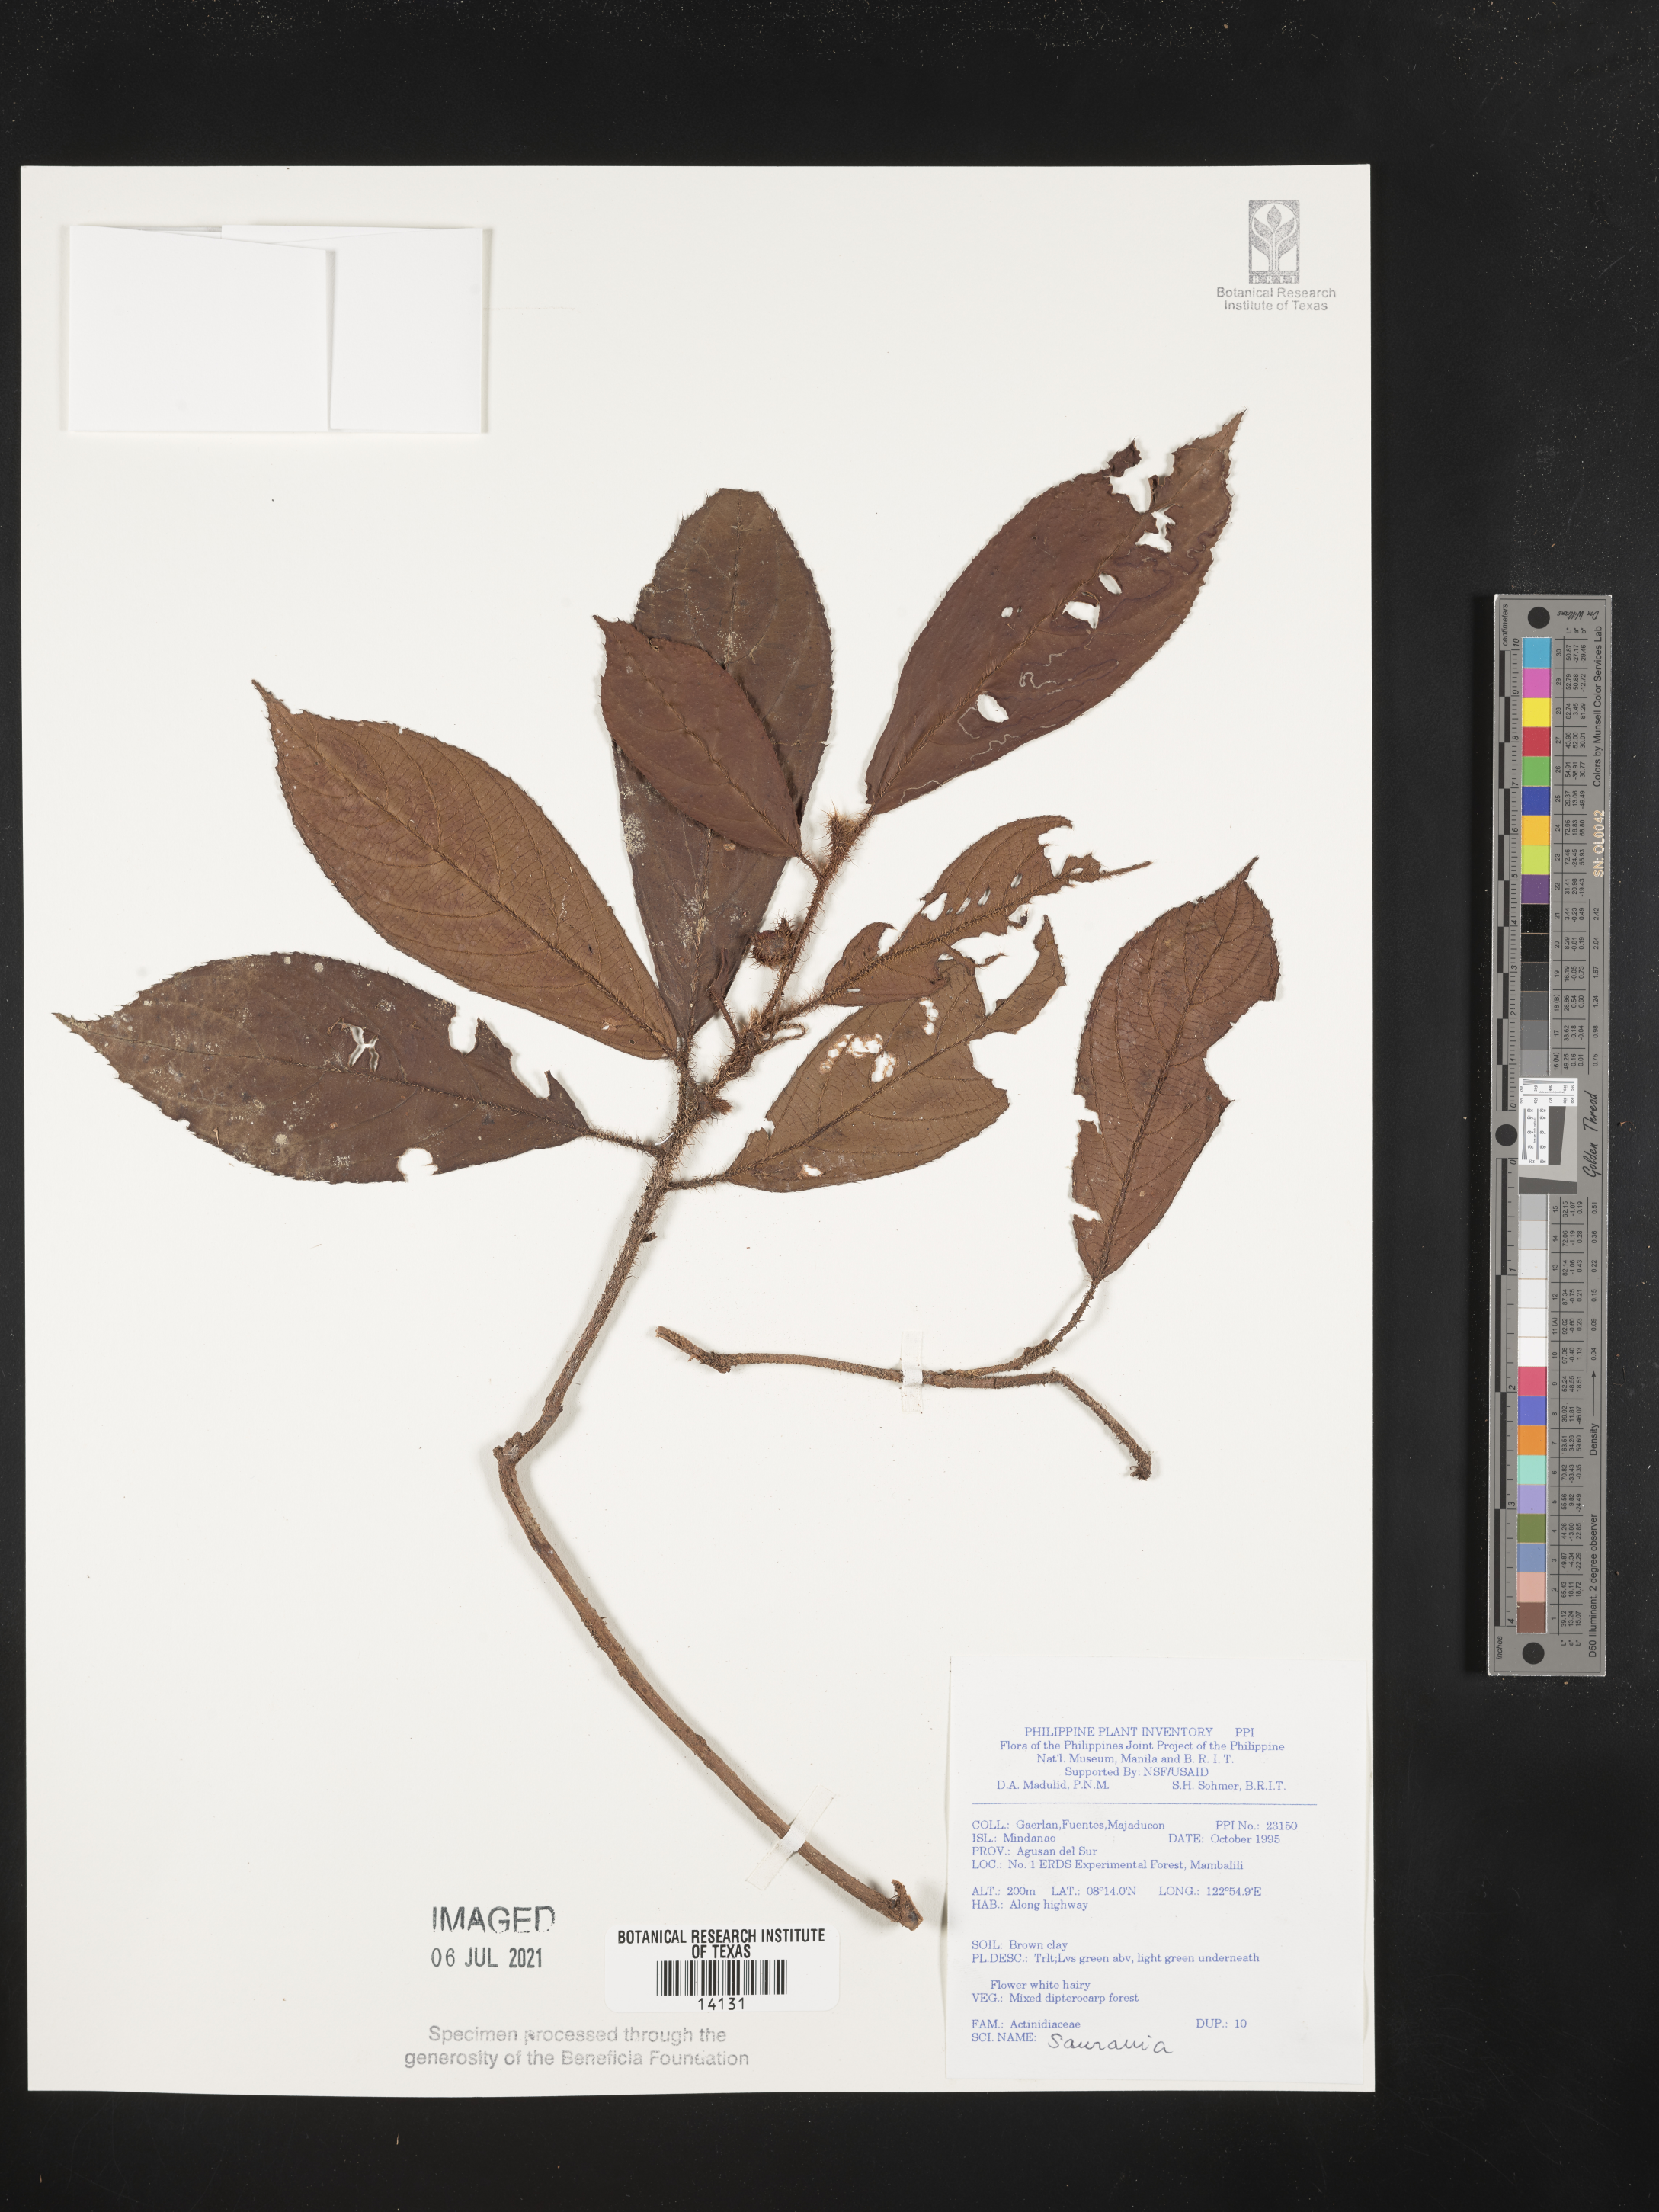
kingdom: Plantae
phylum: Tracheophyta
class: Magnoliopsida
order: Ericales
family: Actinidiaceae
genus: Saurauia
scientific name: Saurauia
